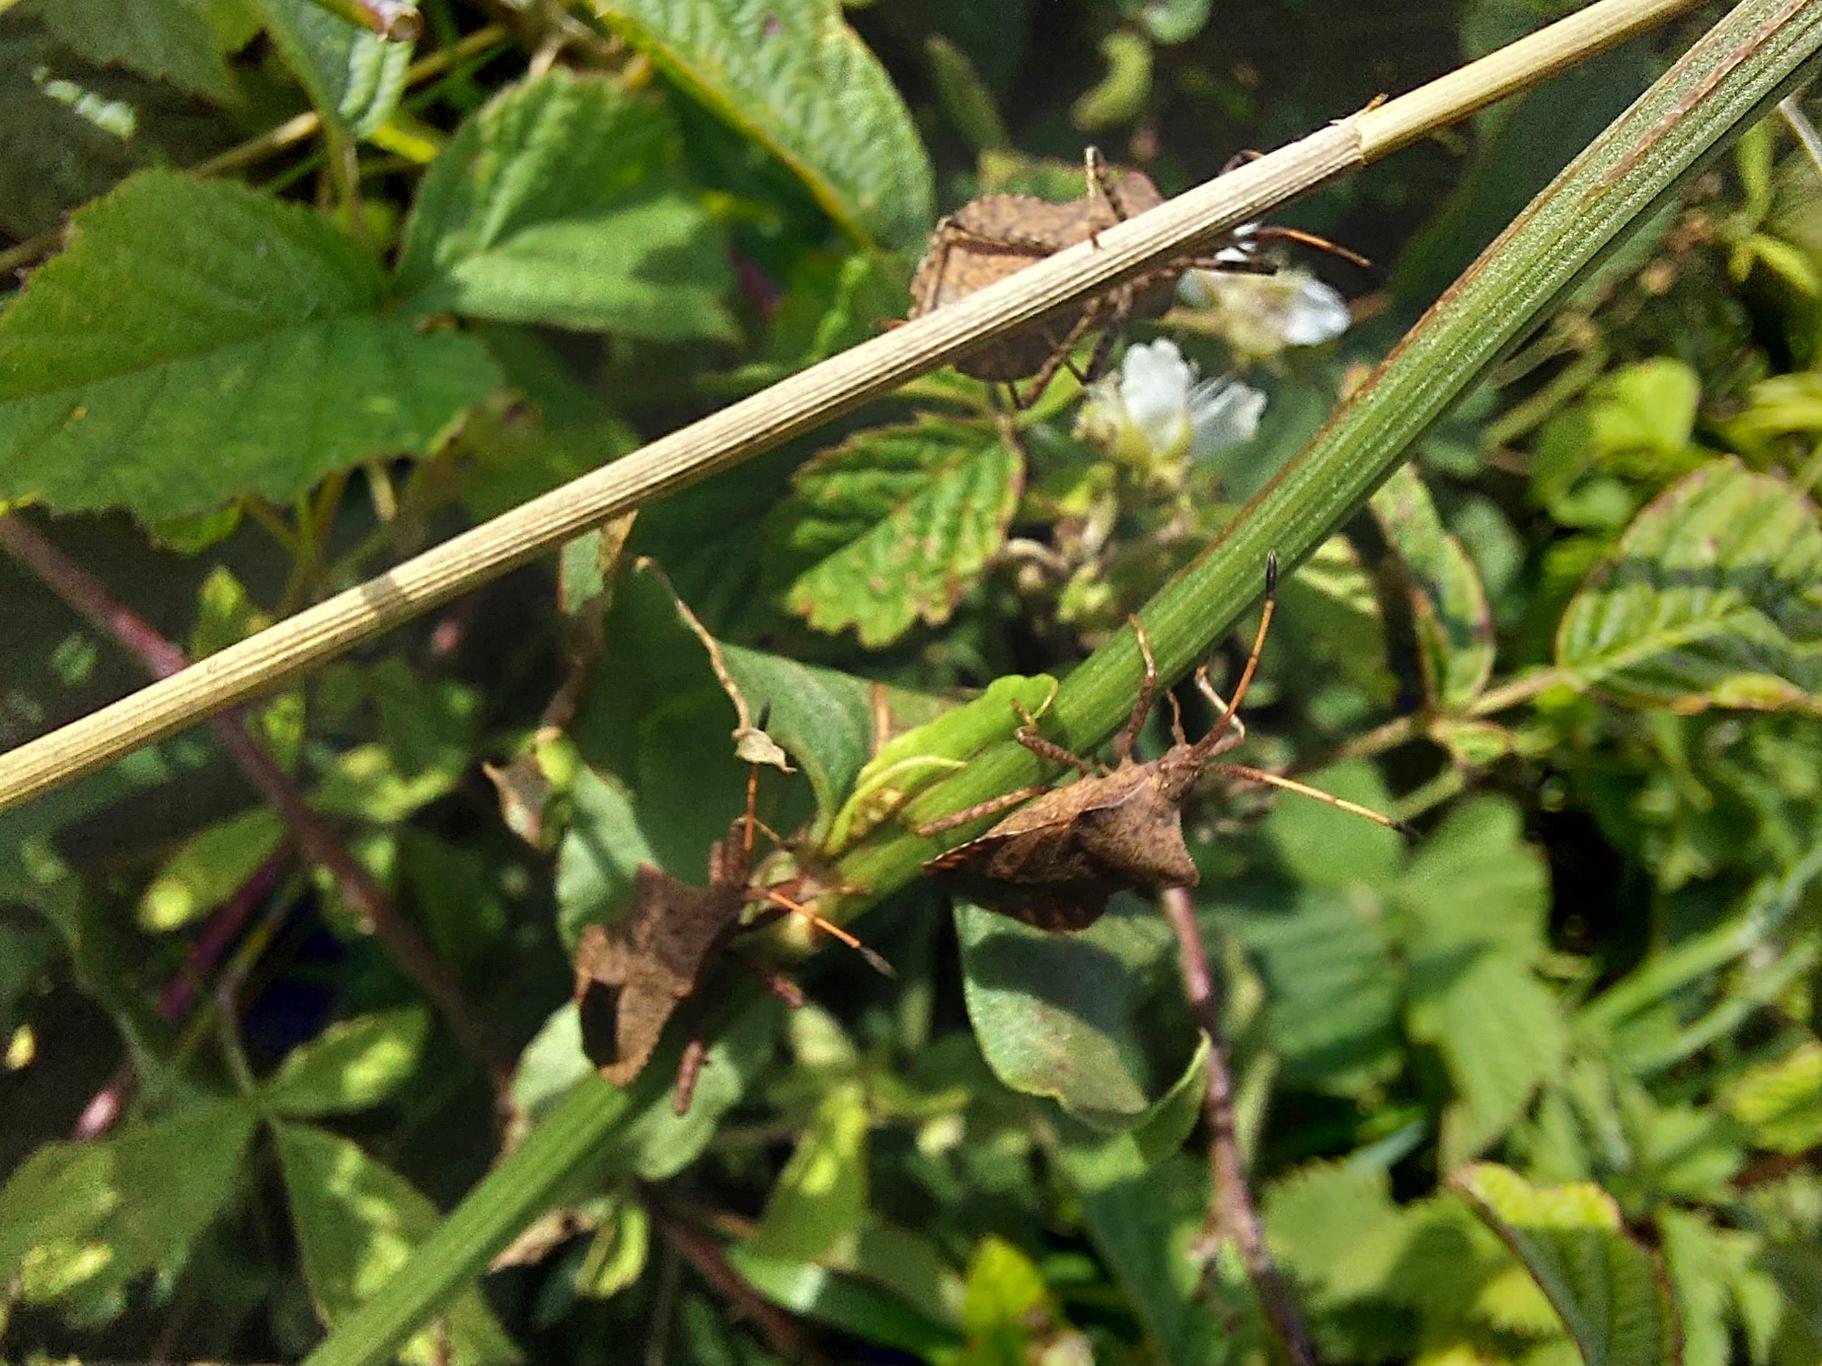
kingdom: Animalia
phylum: Arthropoda
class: Insecta
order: Hemiptera
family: Coreidae
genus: Coreus
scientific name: Coreus marginatus
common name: Skræppetæge
